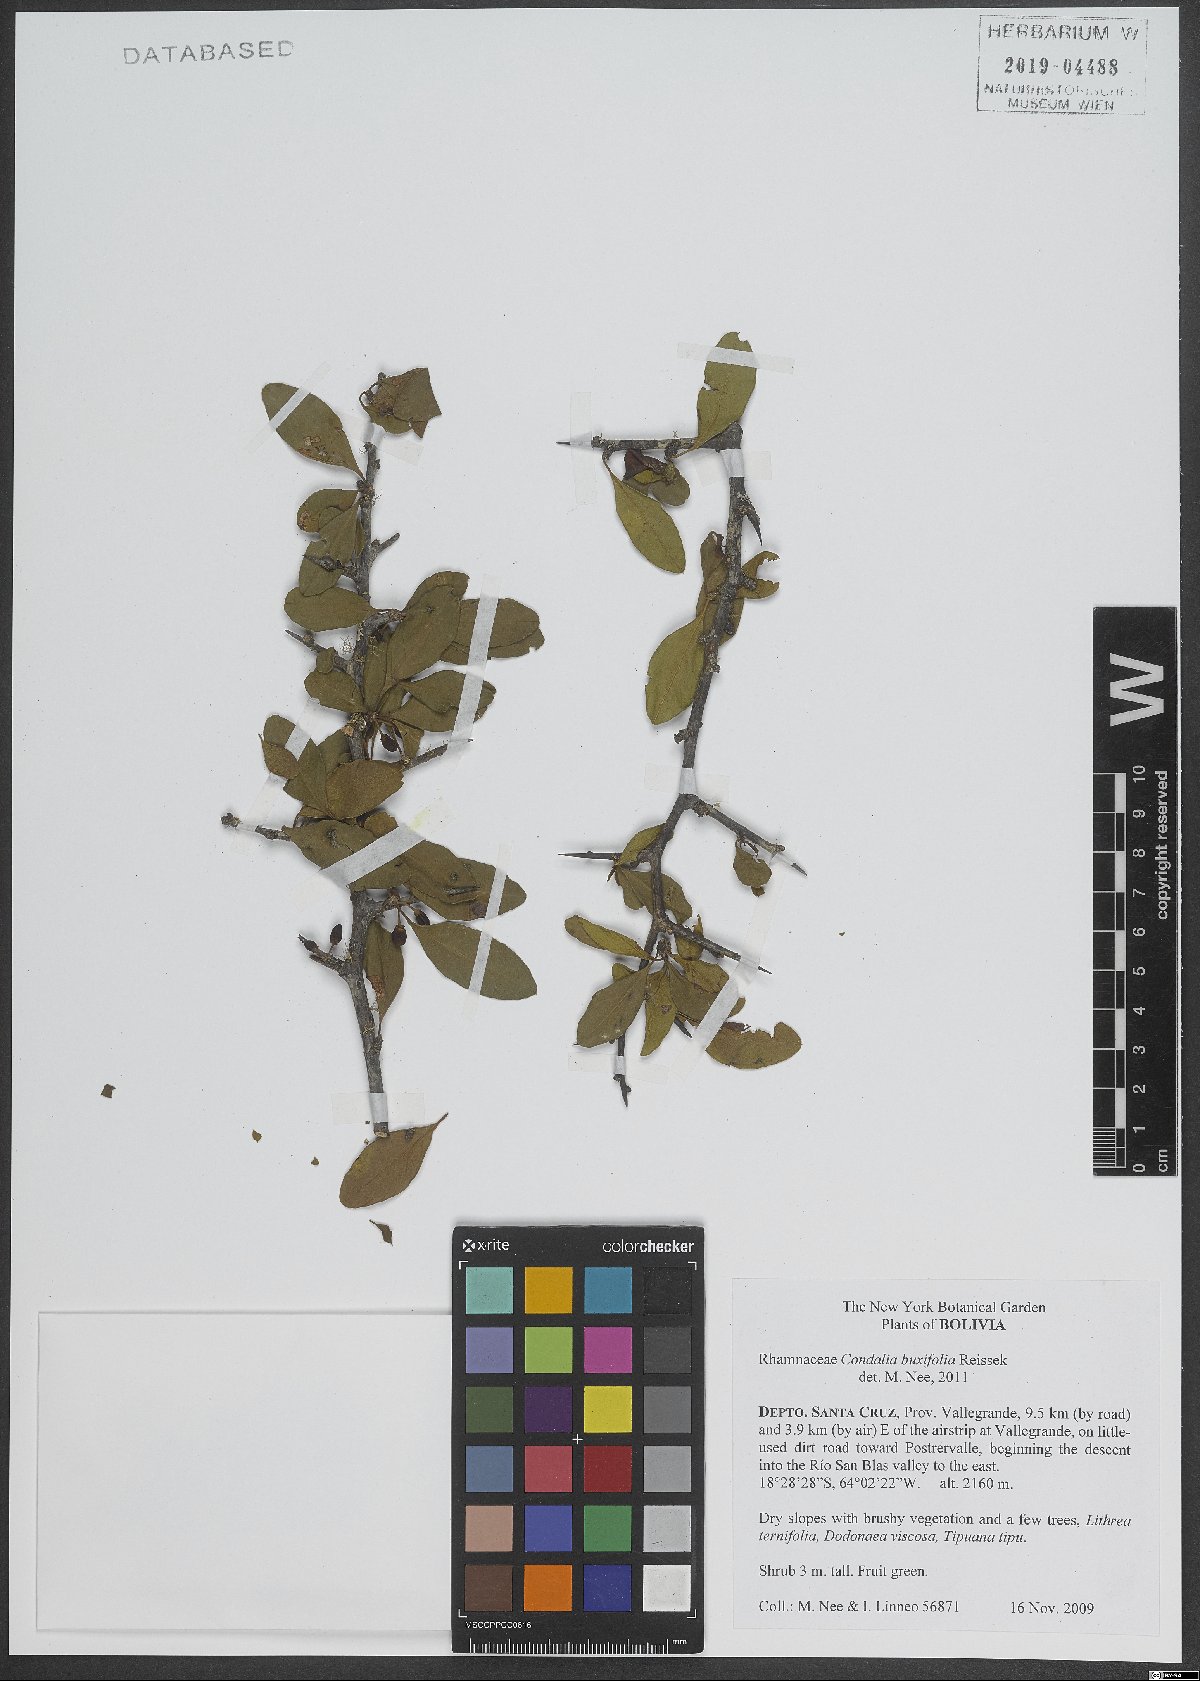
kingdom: Plantae
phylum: Tracheophyta
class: Magnoliopsida
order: Rosales
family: Rhamnaceae
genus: Condalia
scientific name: Condalia buxifolia
